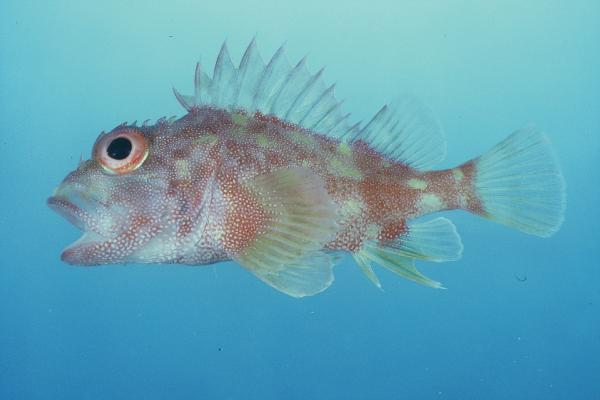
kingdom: Animalia
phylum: Chordata
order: Scorpaeniformes
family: Scorpaenidae
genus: Sebastapistes
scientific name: Sebastapistes cyanostigma
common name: Yellowspotted scorpionfish
